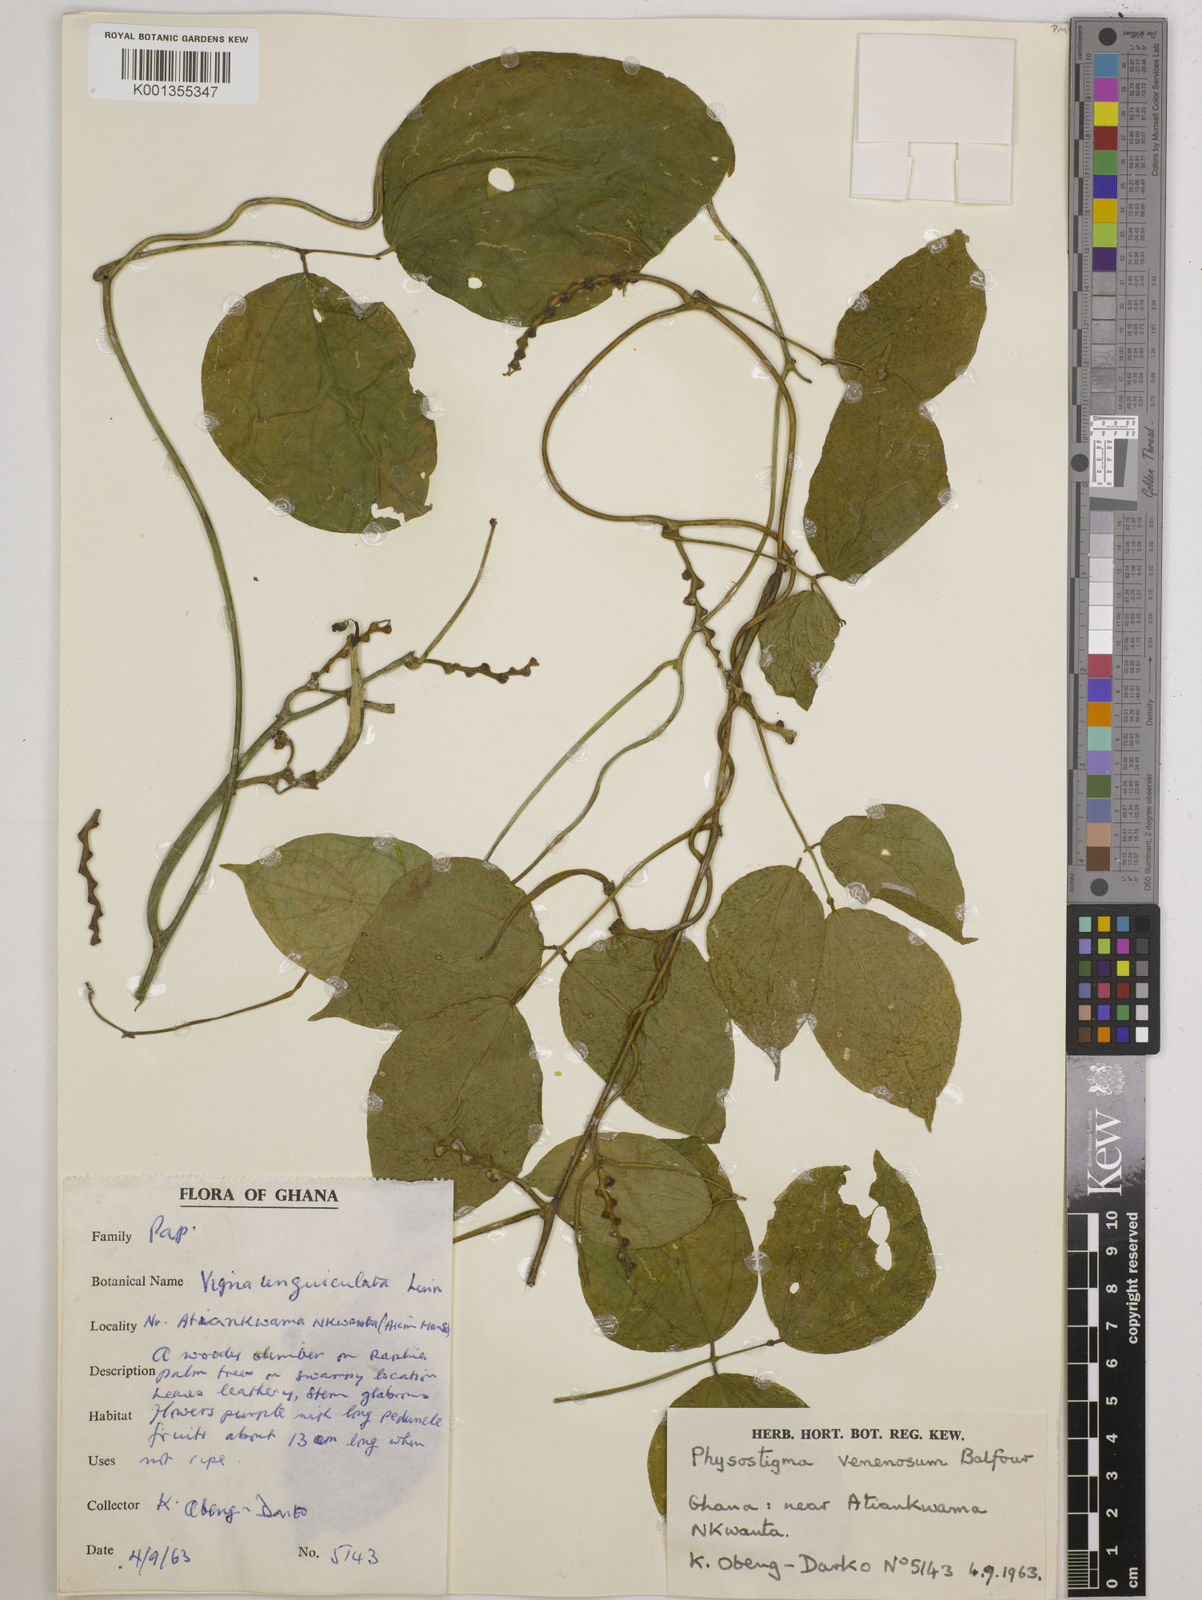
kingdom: Plantae
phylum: Tracheophyta
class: Magnoliopsida
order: Fabales
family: Fabaceae
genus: Physostigma
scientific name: Physostigma venenosum
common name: Calabar-bean
